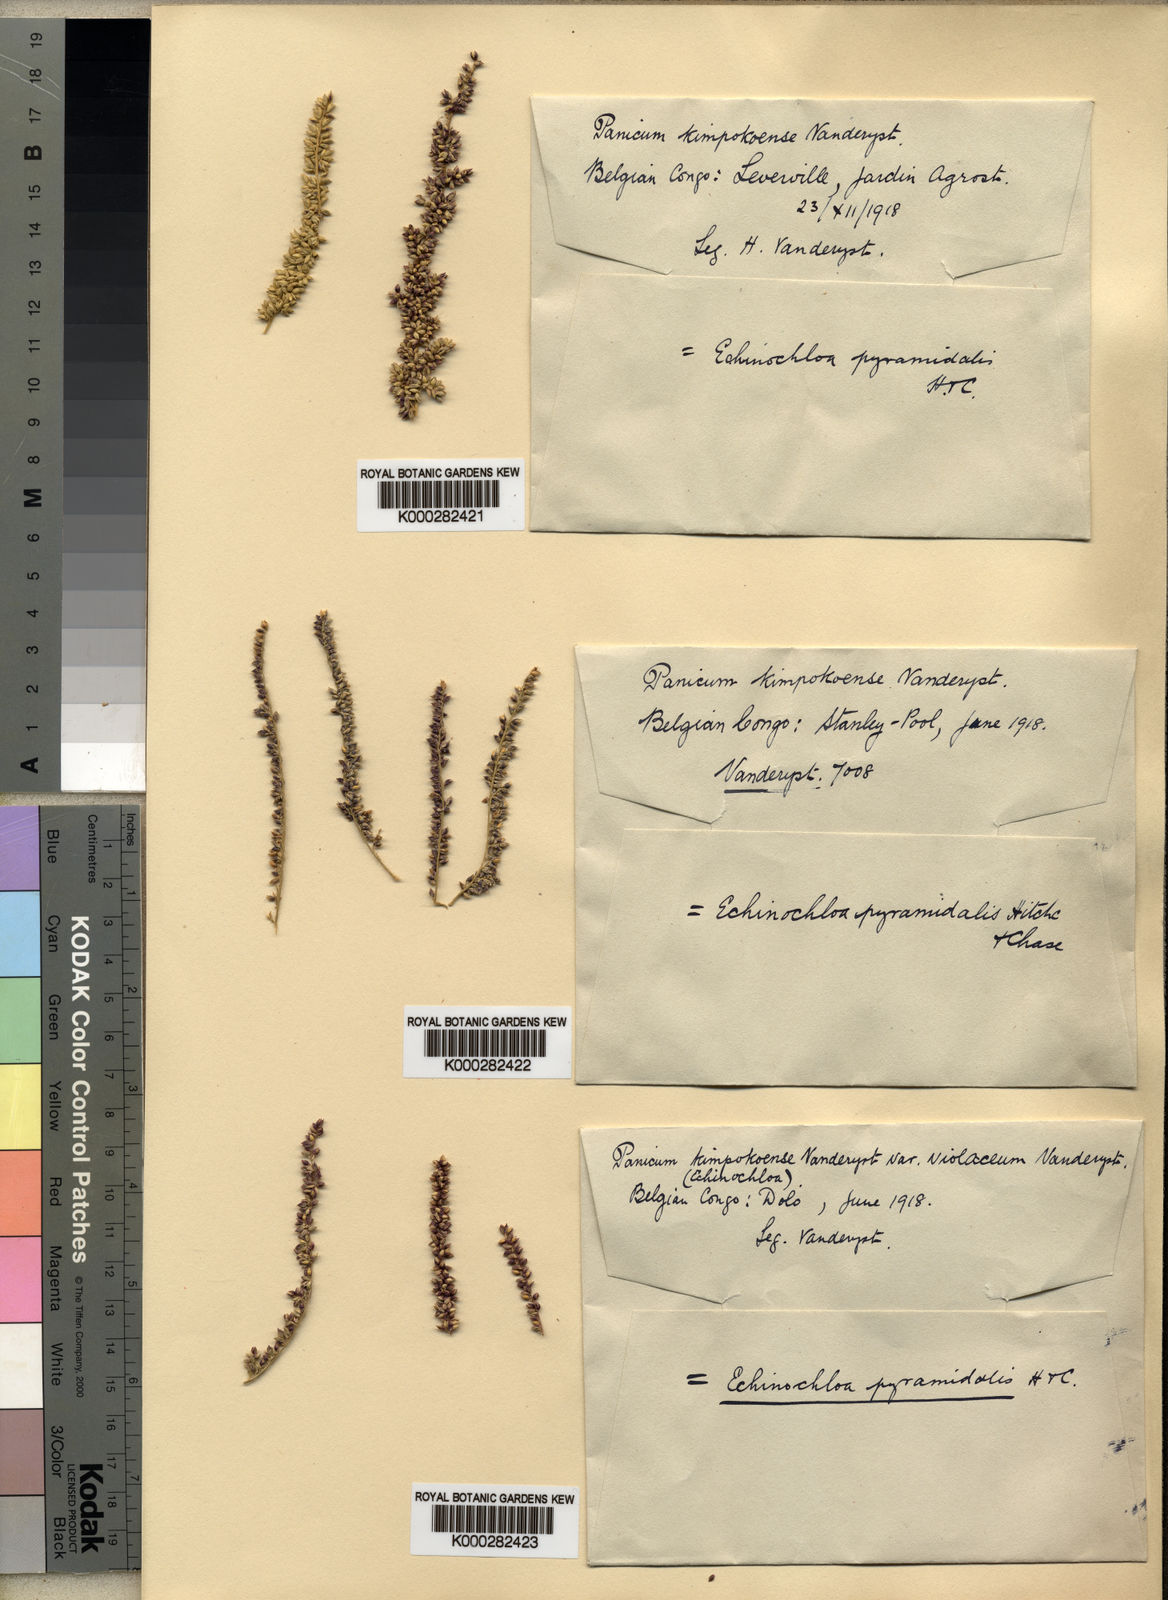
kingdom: Plantae
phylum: Tracheophyta
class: Liliopsida
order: Poales
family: Poaceae
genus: Entolasia
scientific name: Entolasia olivacea
